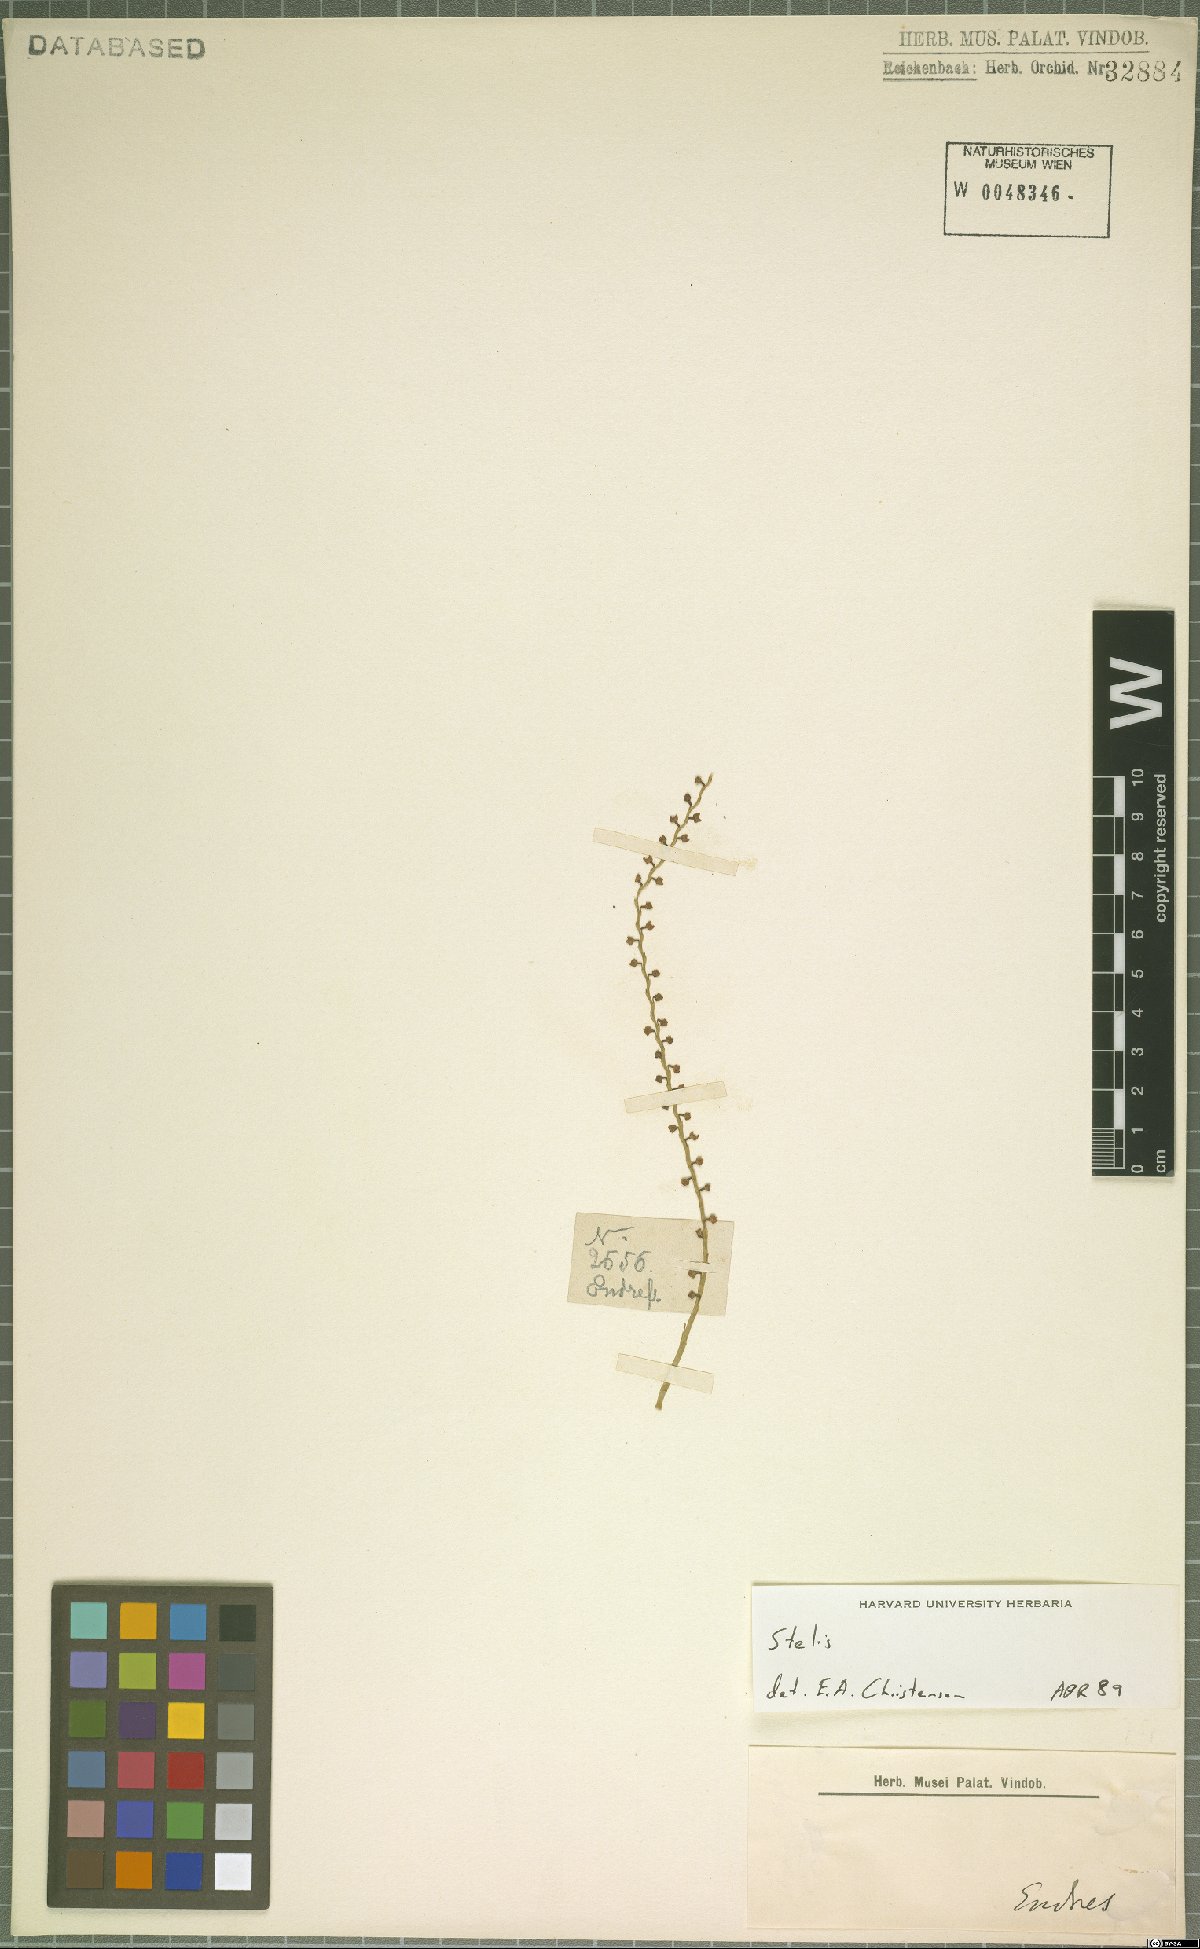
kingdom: Plantae
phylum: Tracheophyta
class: Liliopsida
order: Asparagales
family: Orchidaceae
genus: Stelis
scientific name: Stelis
